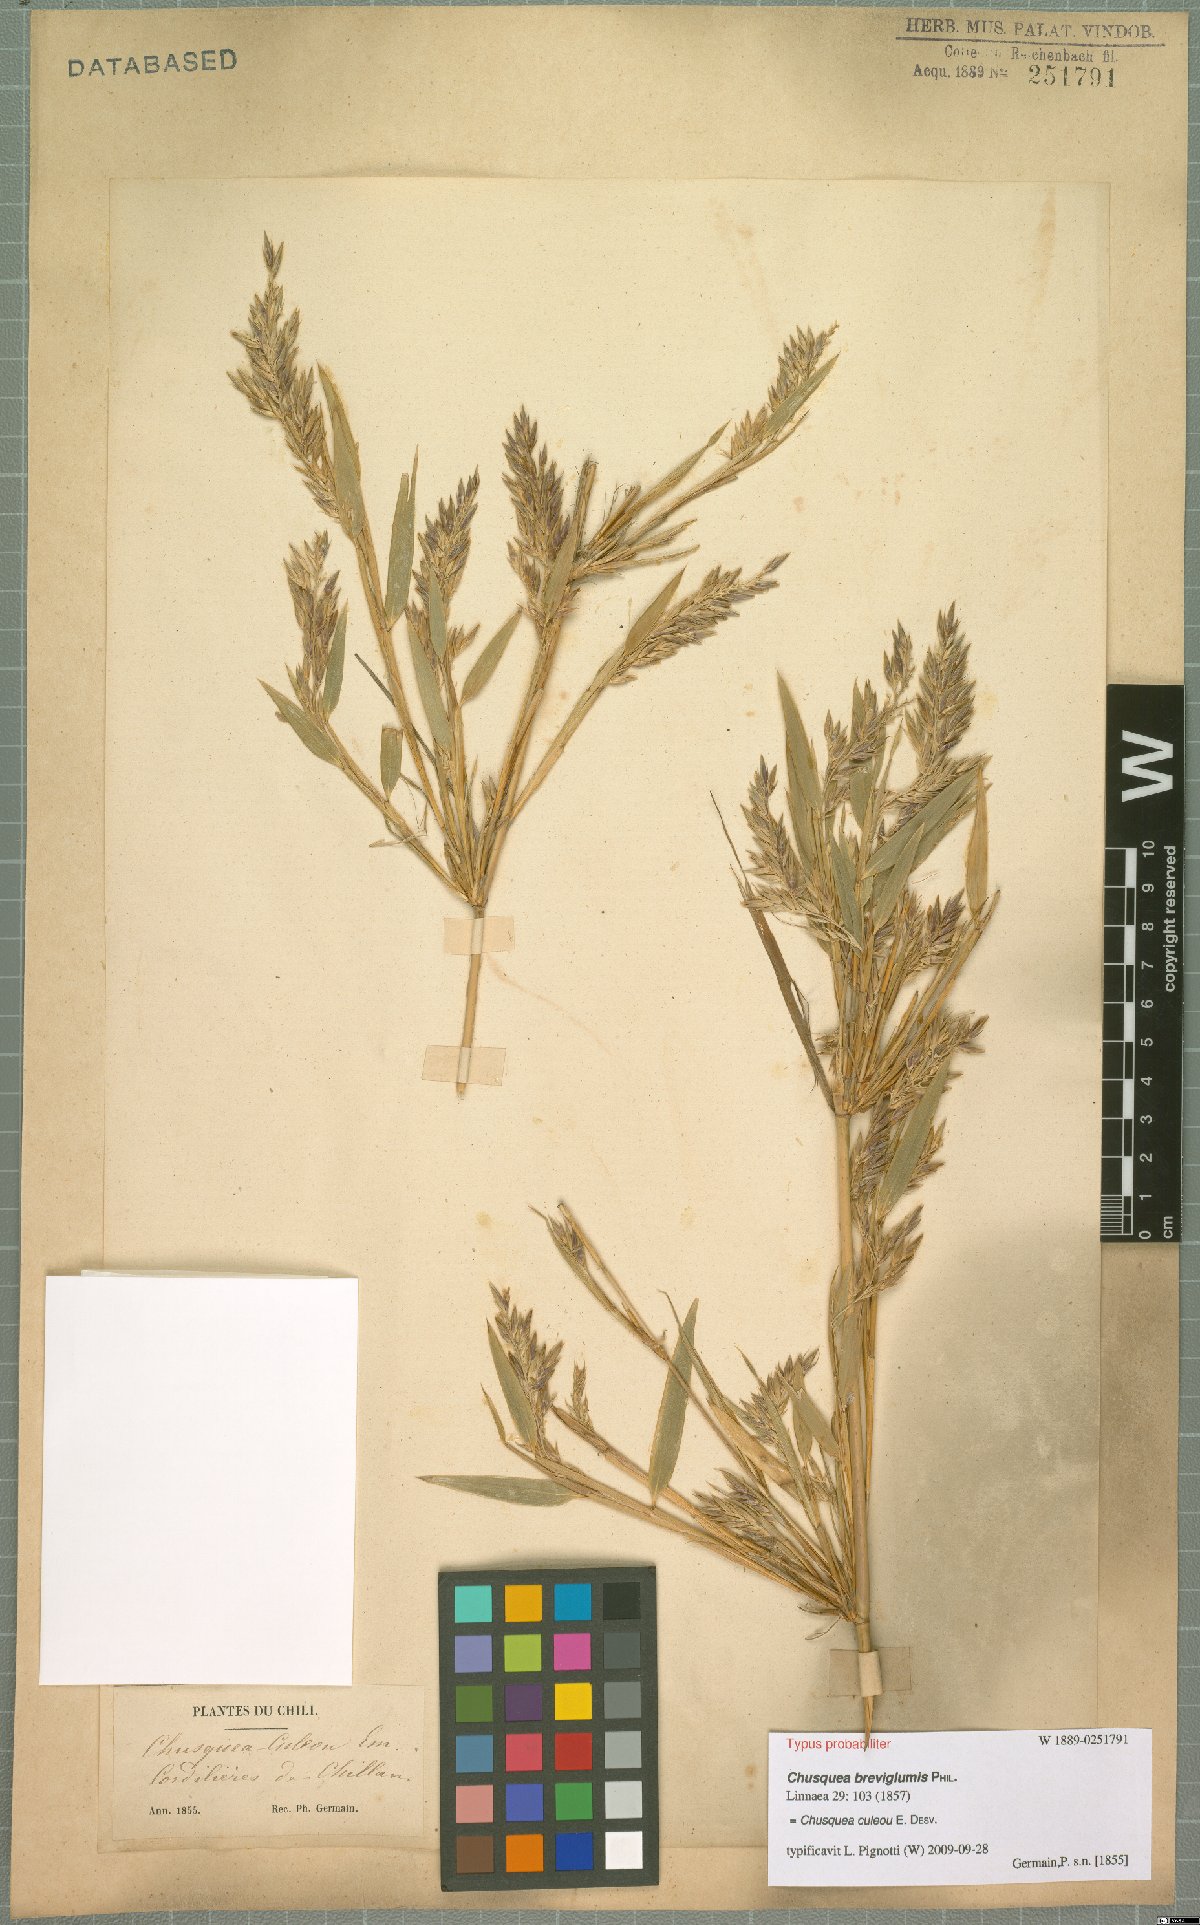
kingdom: Plantae
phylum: Tracheophyta
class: Liliopsida
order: Poales
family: Poaceae
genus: Chusquea
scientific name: Chusquea culeou
